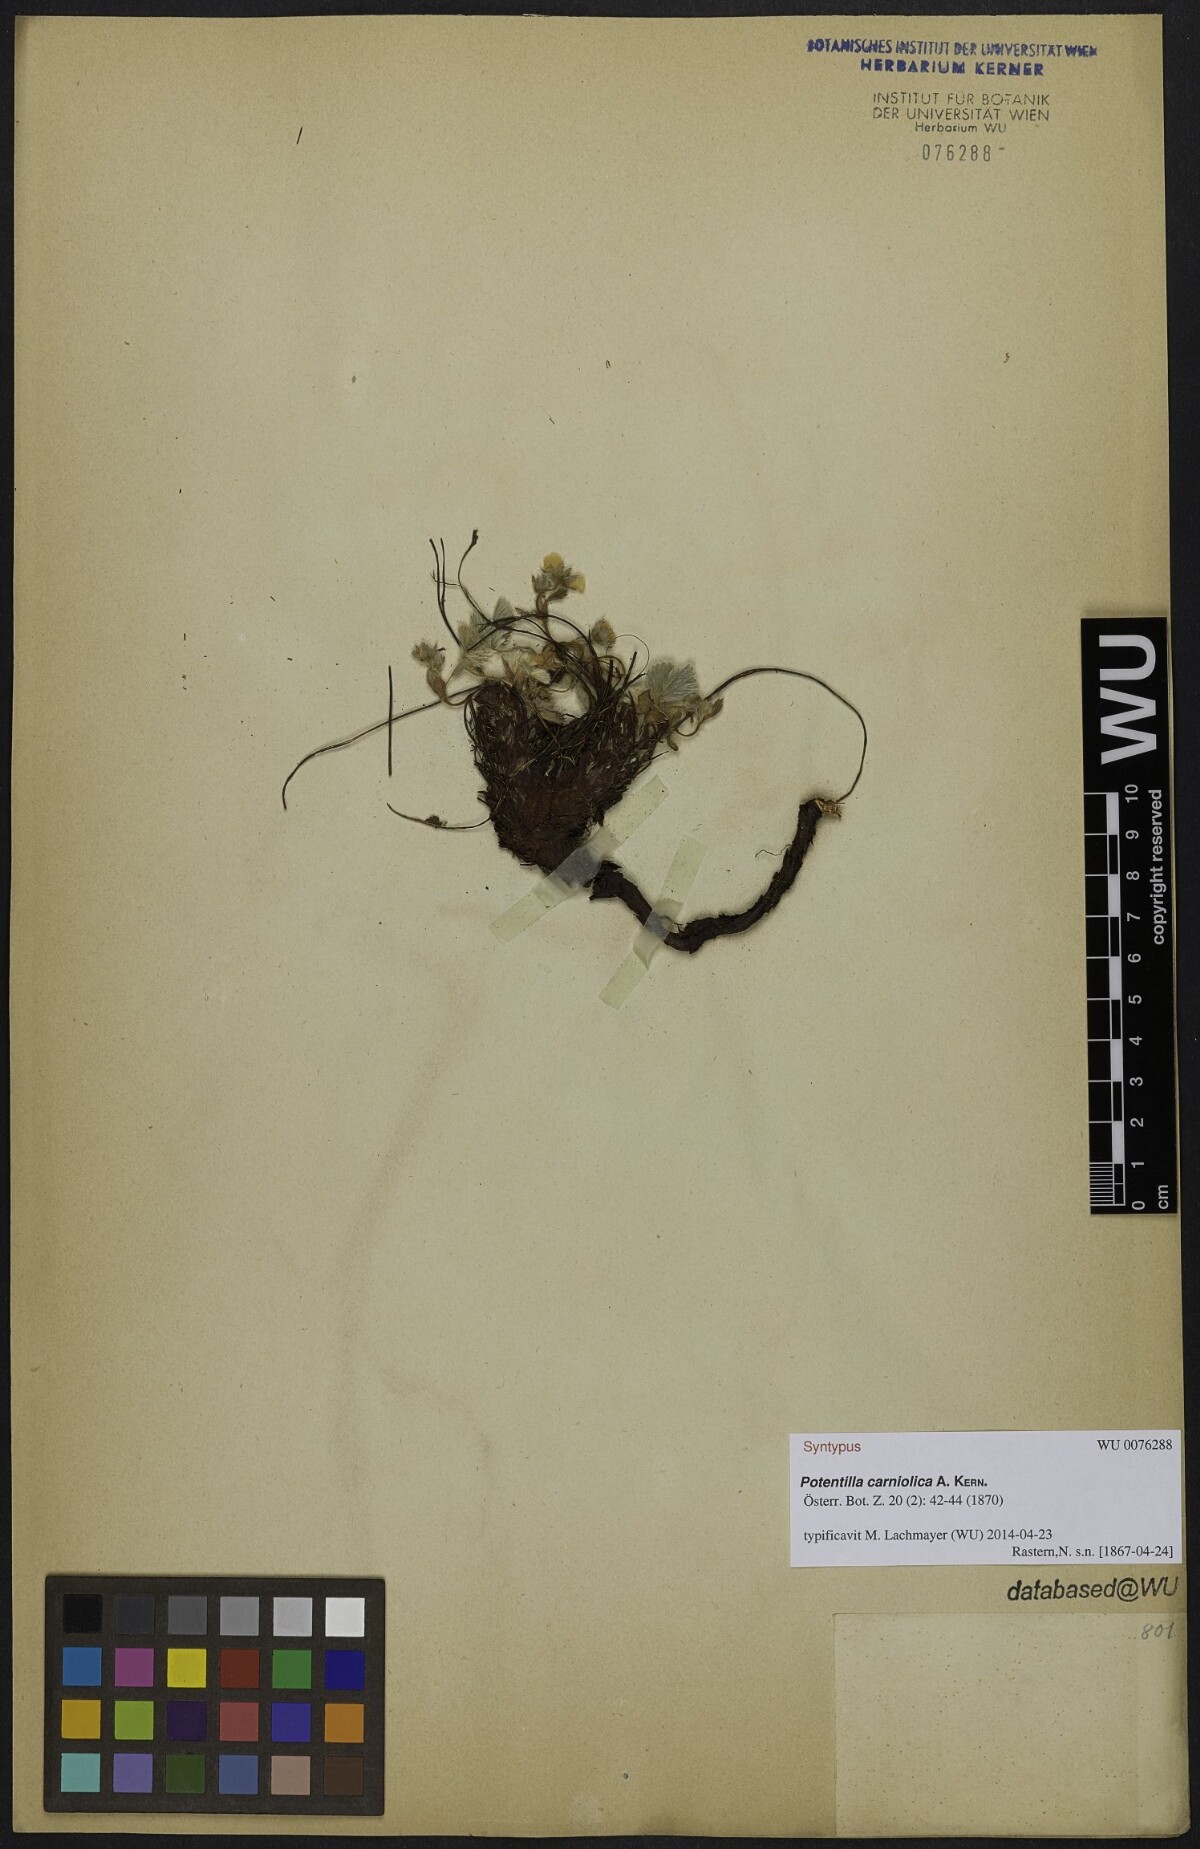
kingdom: Plantae
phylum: Tracheophyta
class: Magnoliopsida
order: Rosales
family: Rosaceae
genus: Potentilla
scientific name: Potentilla carniolica
